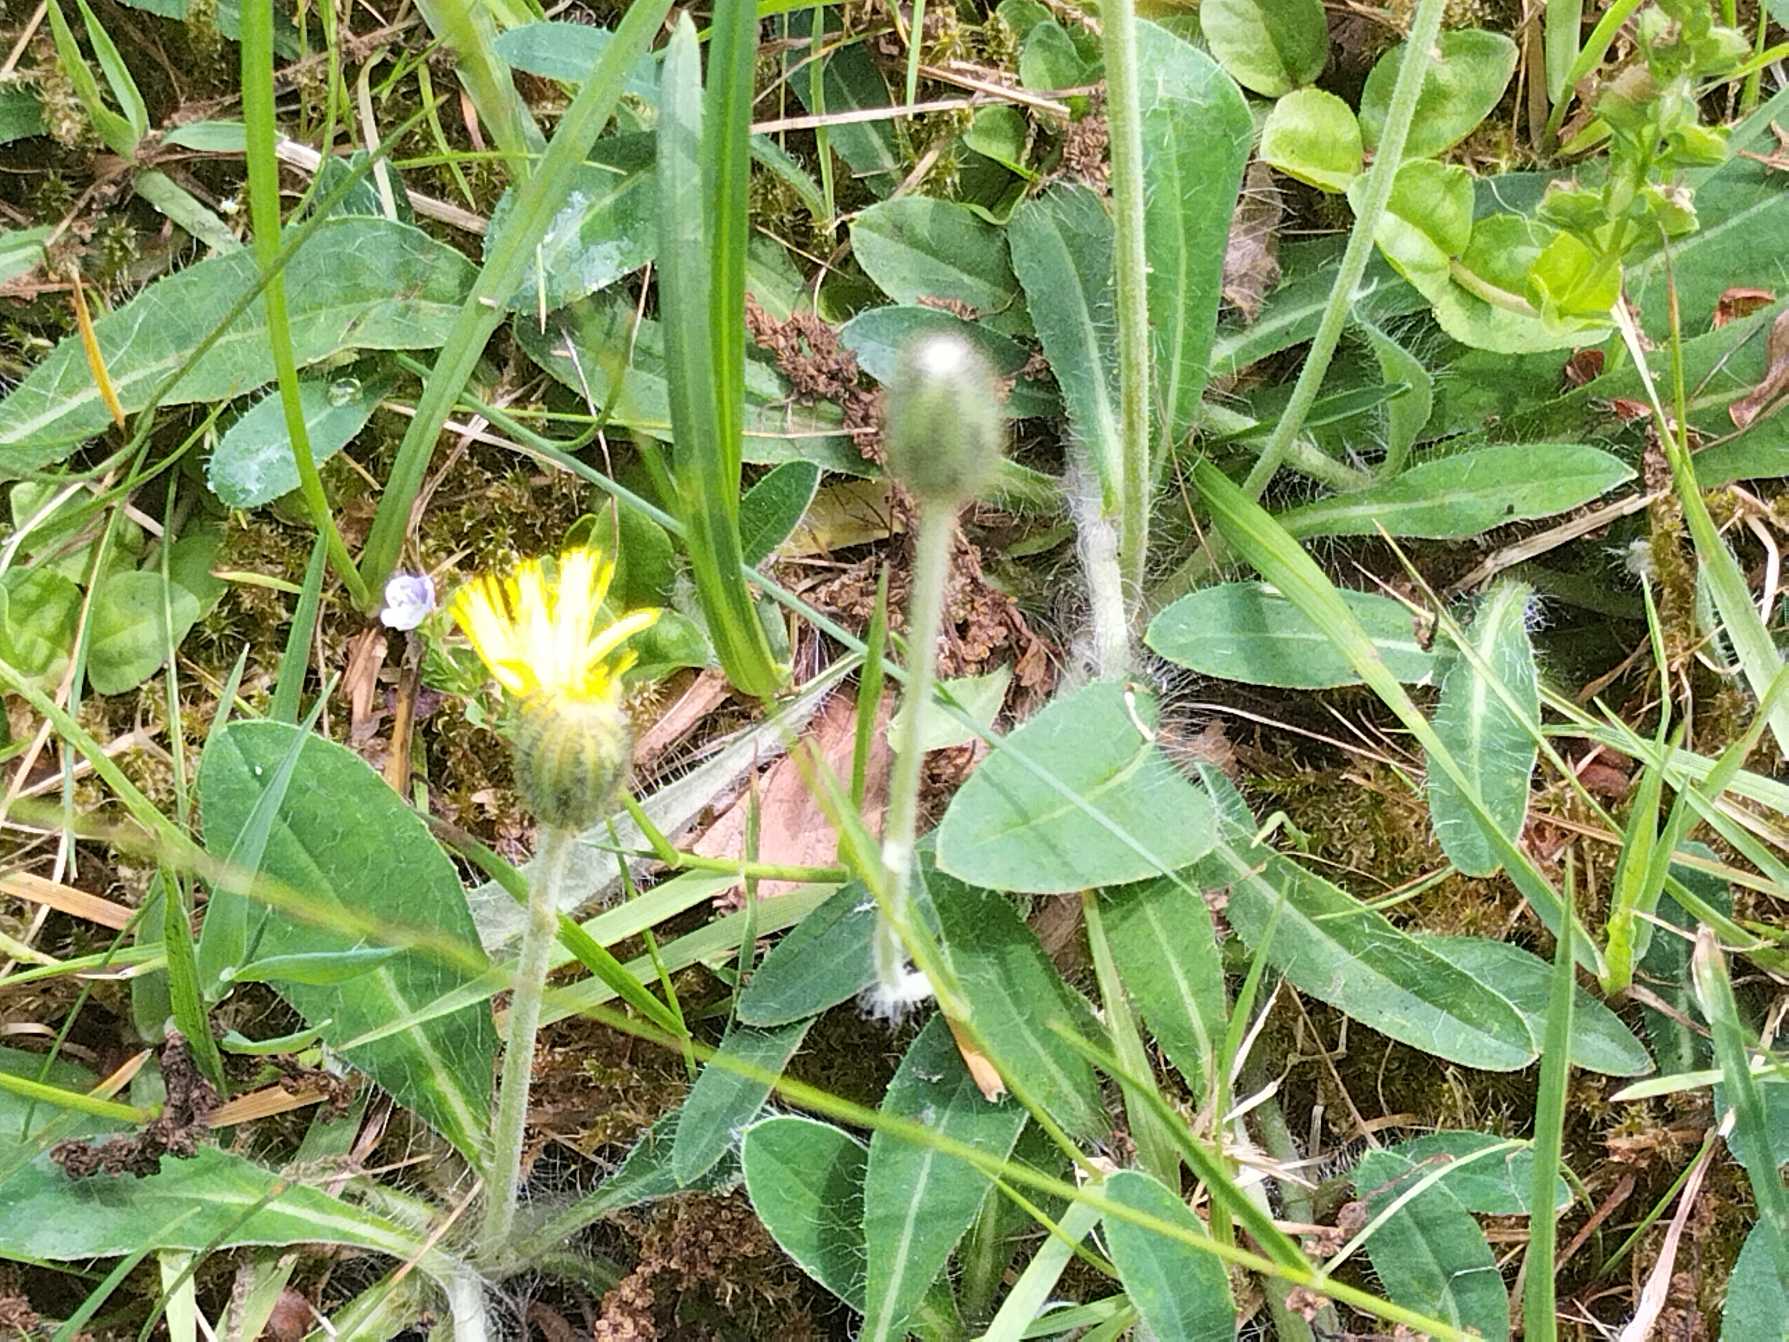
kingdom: Plantae
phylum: Tracheophyta
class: Magnoliopsida
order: Asterales
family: Asteraceae
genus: Pilosella
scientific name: Pilosella officinarum
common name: Håret høgeurt
